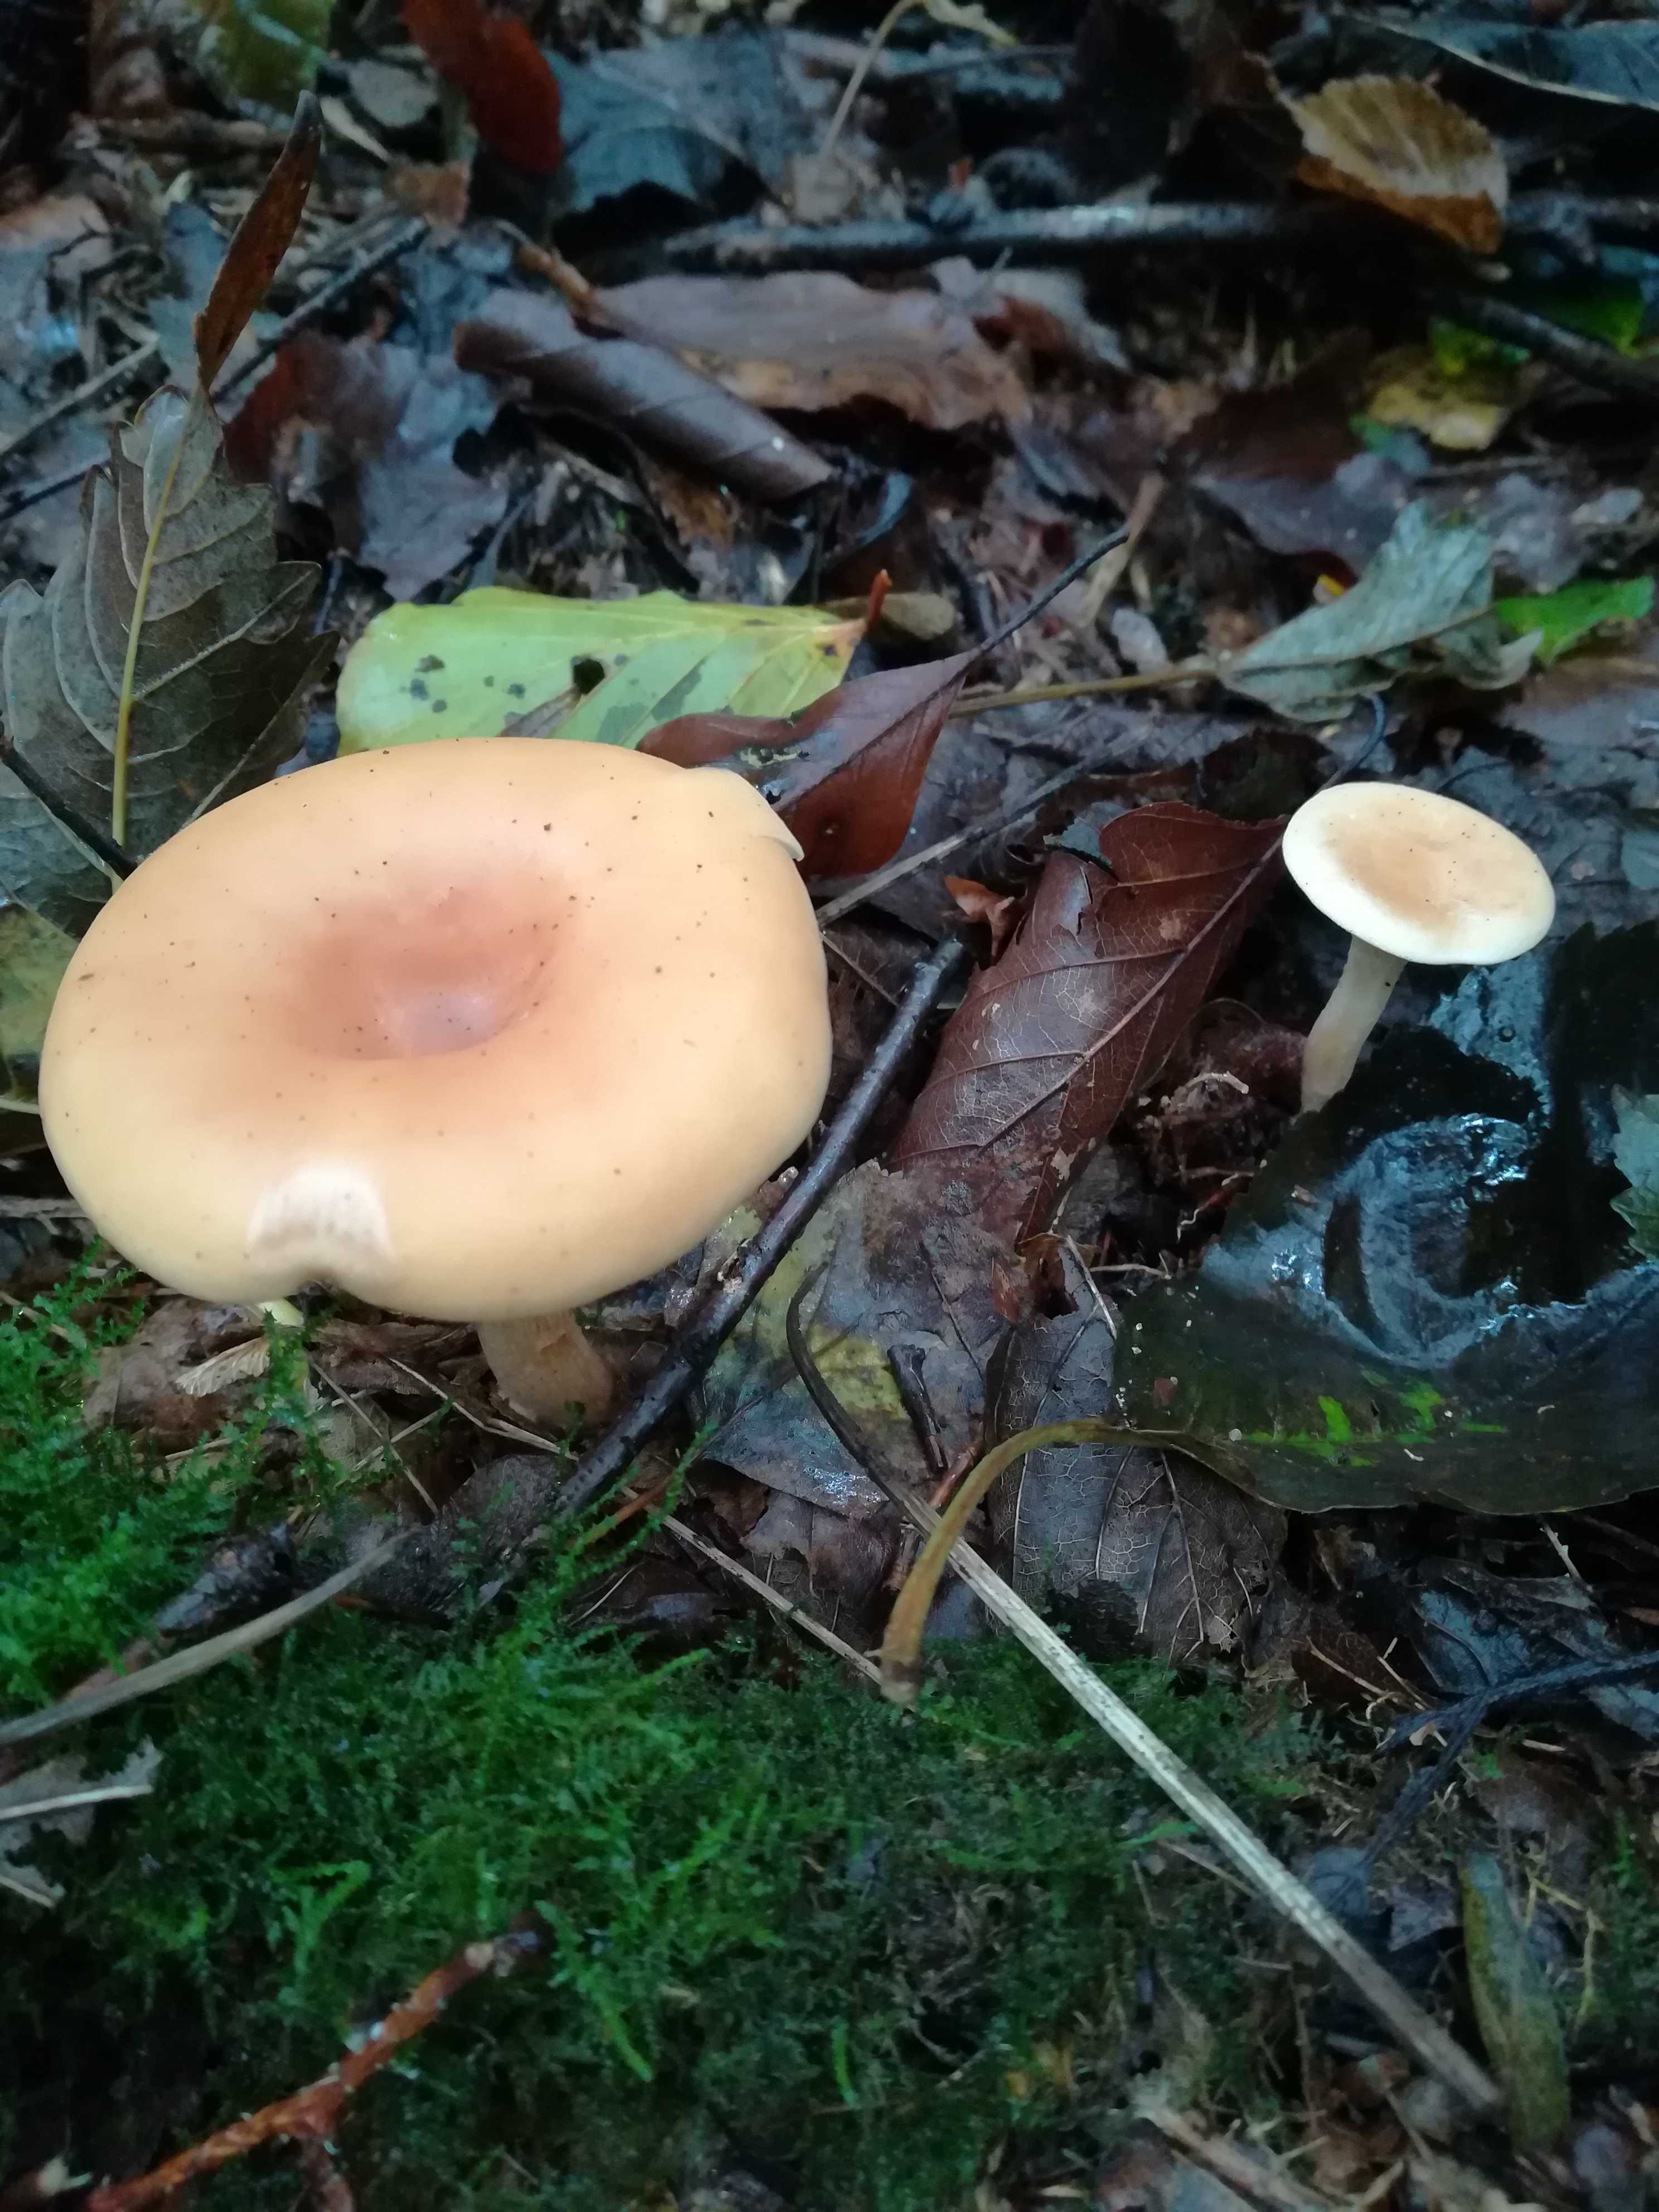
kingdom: Fungi
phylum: Basidiomycota
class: Agaricomycetes
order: Agaricales
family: Tricholomataceae
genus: Paralepista
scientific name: Paralepista flaccida
